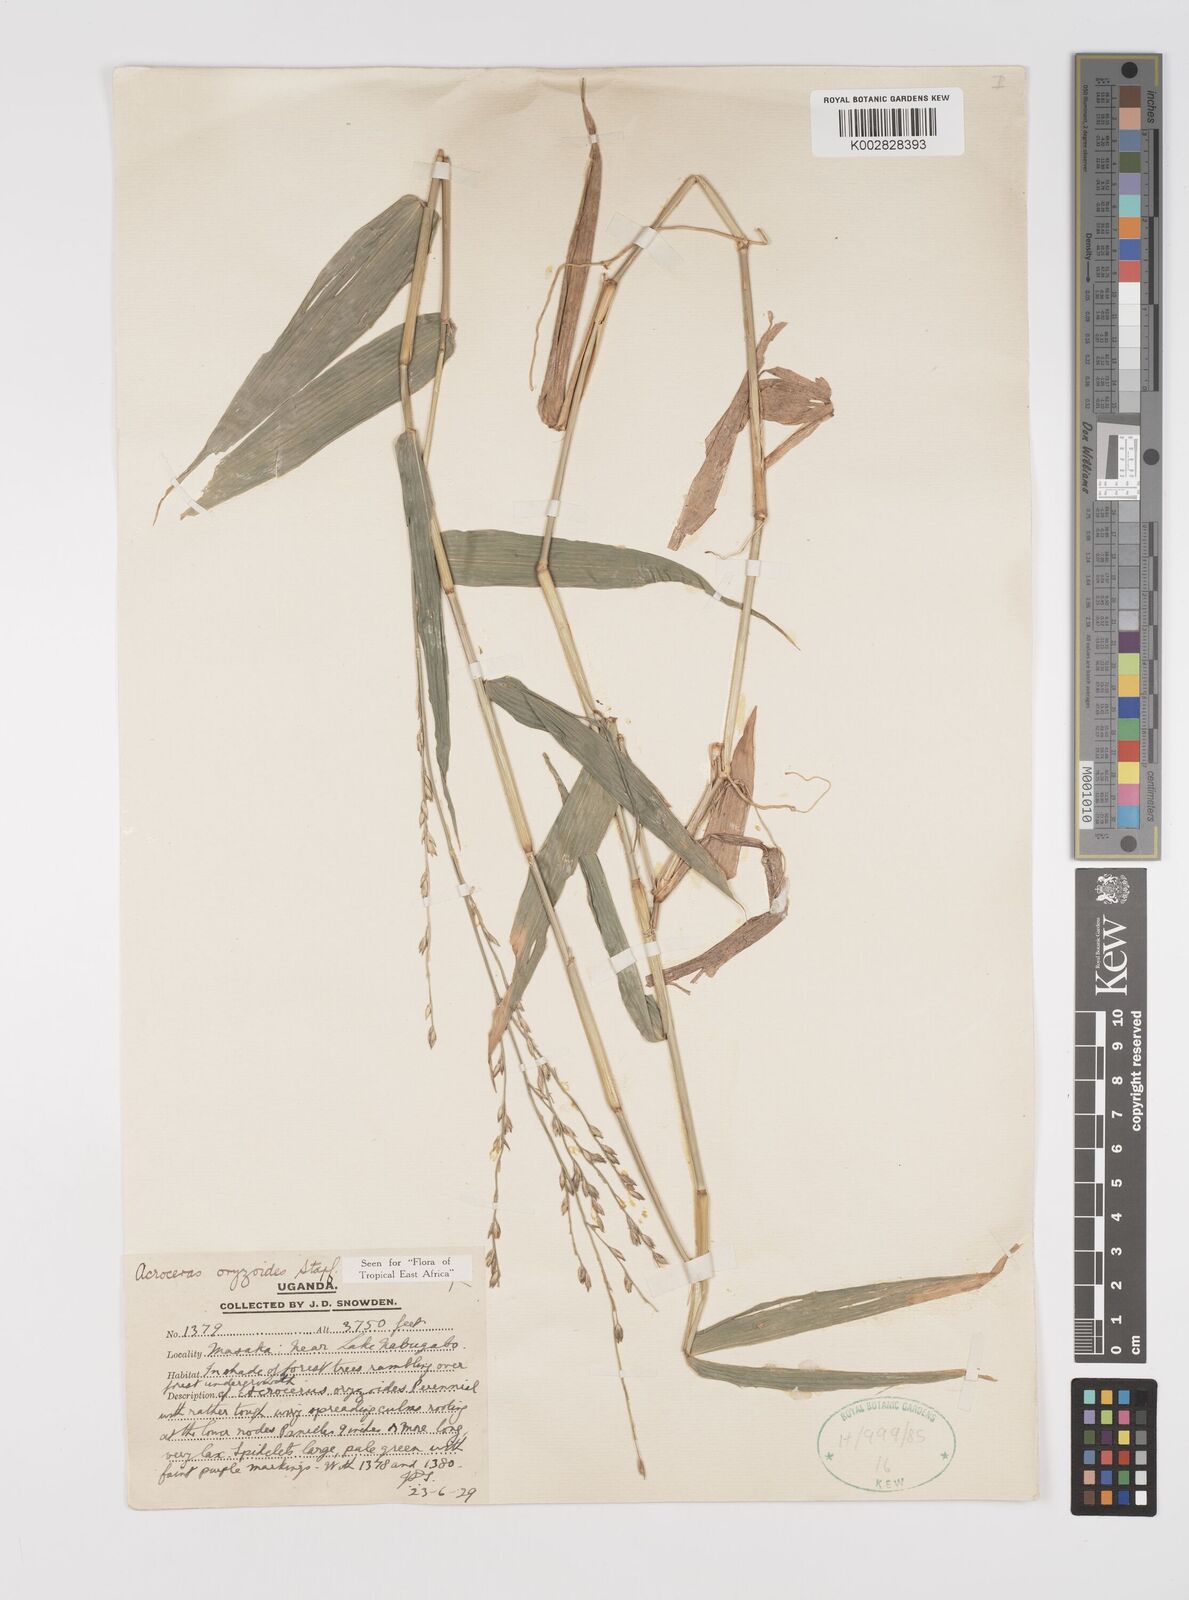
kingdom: Plantae
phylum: Tracheophyta
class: Liliopsida
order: Poales
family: Poaceae
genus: Acroceras
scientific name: Acroceras zizanioides
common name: Oat grass
